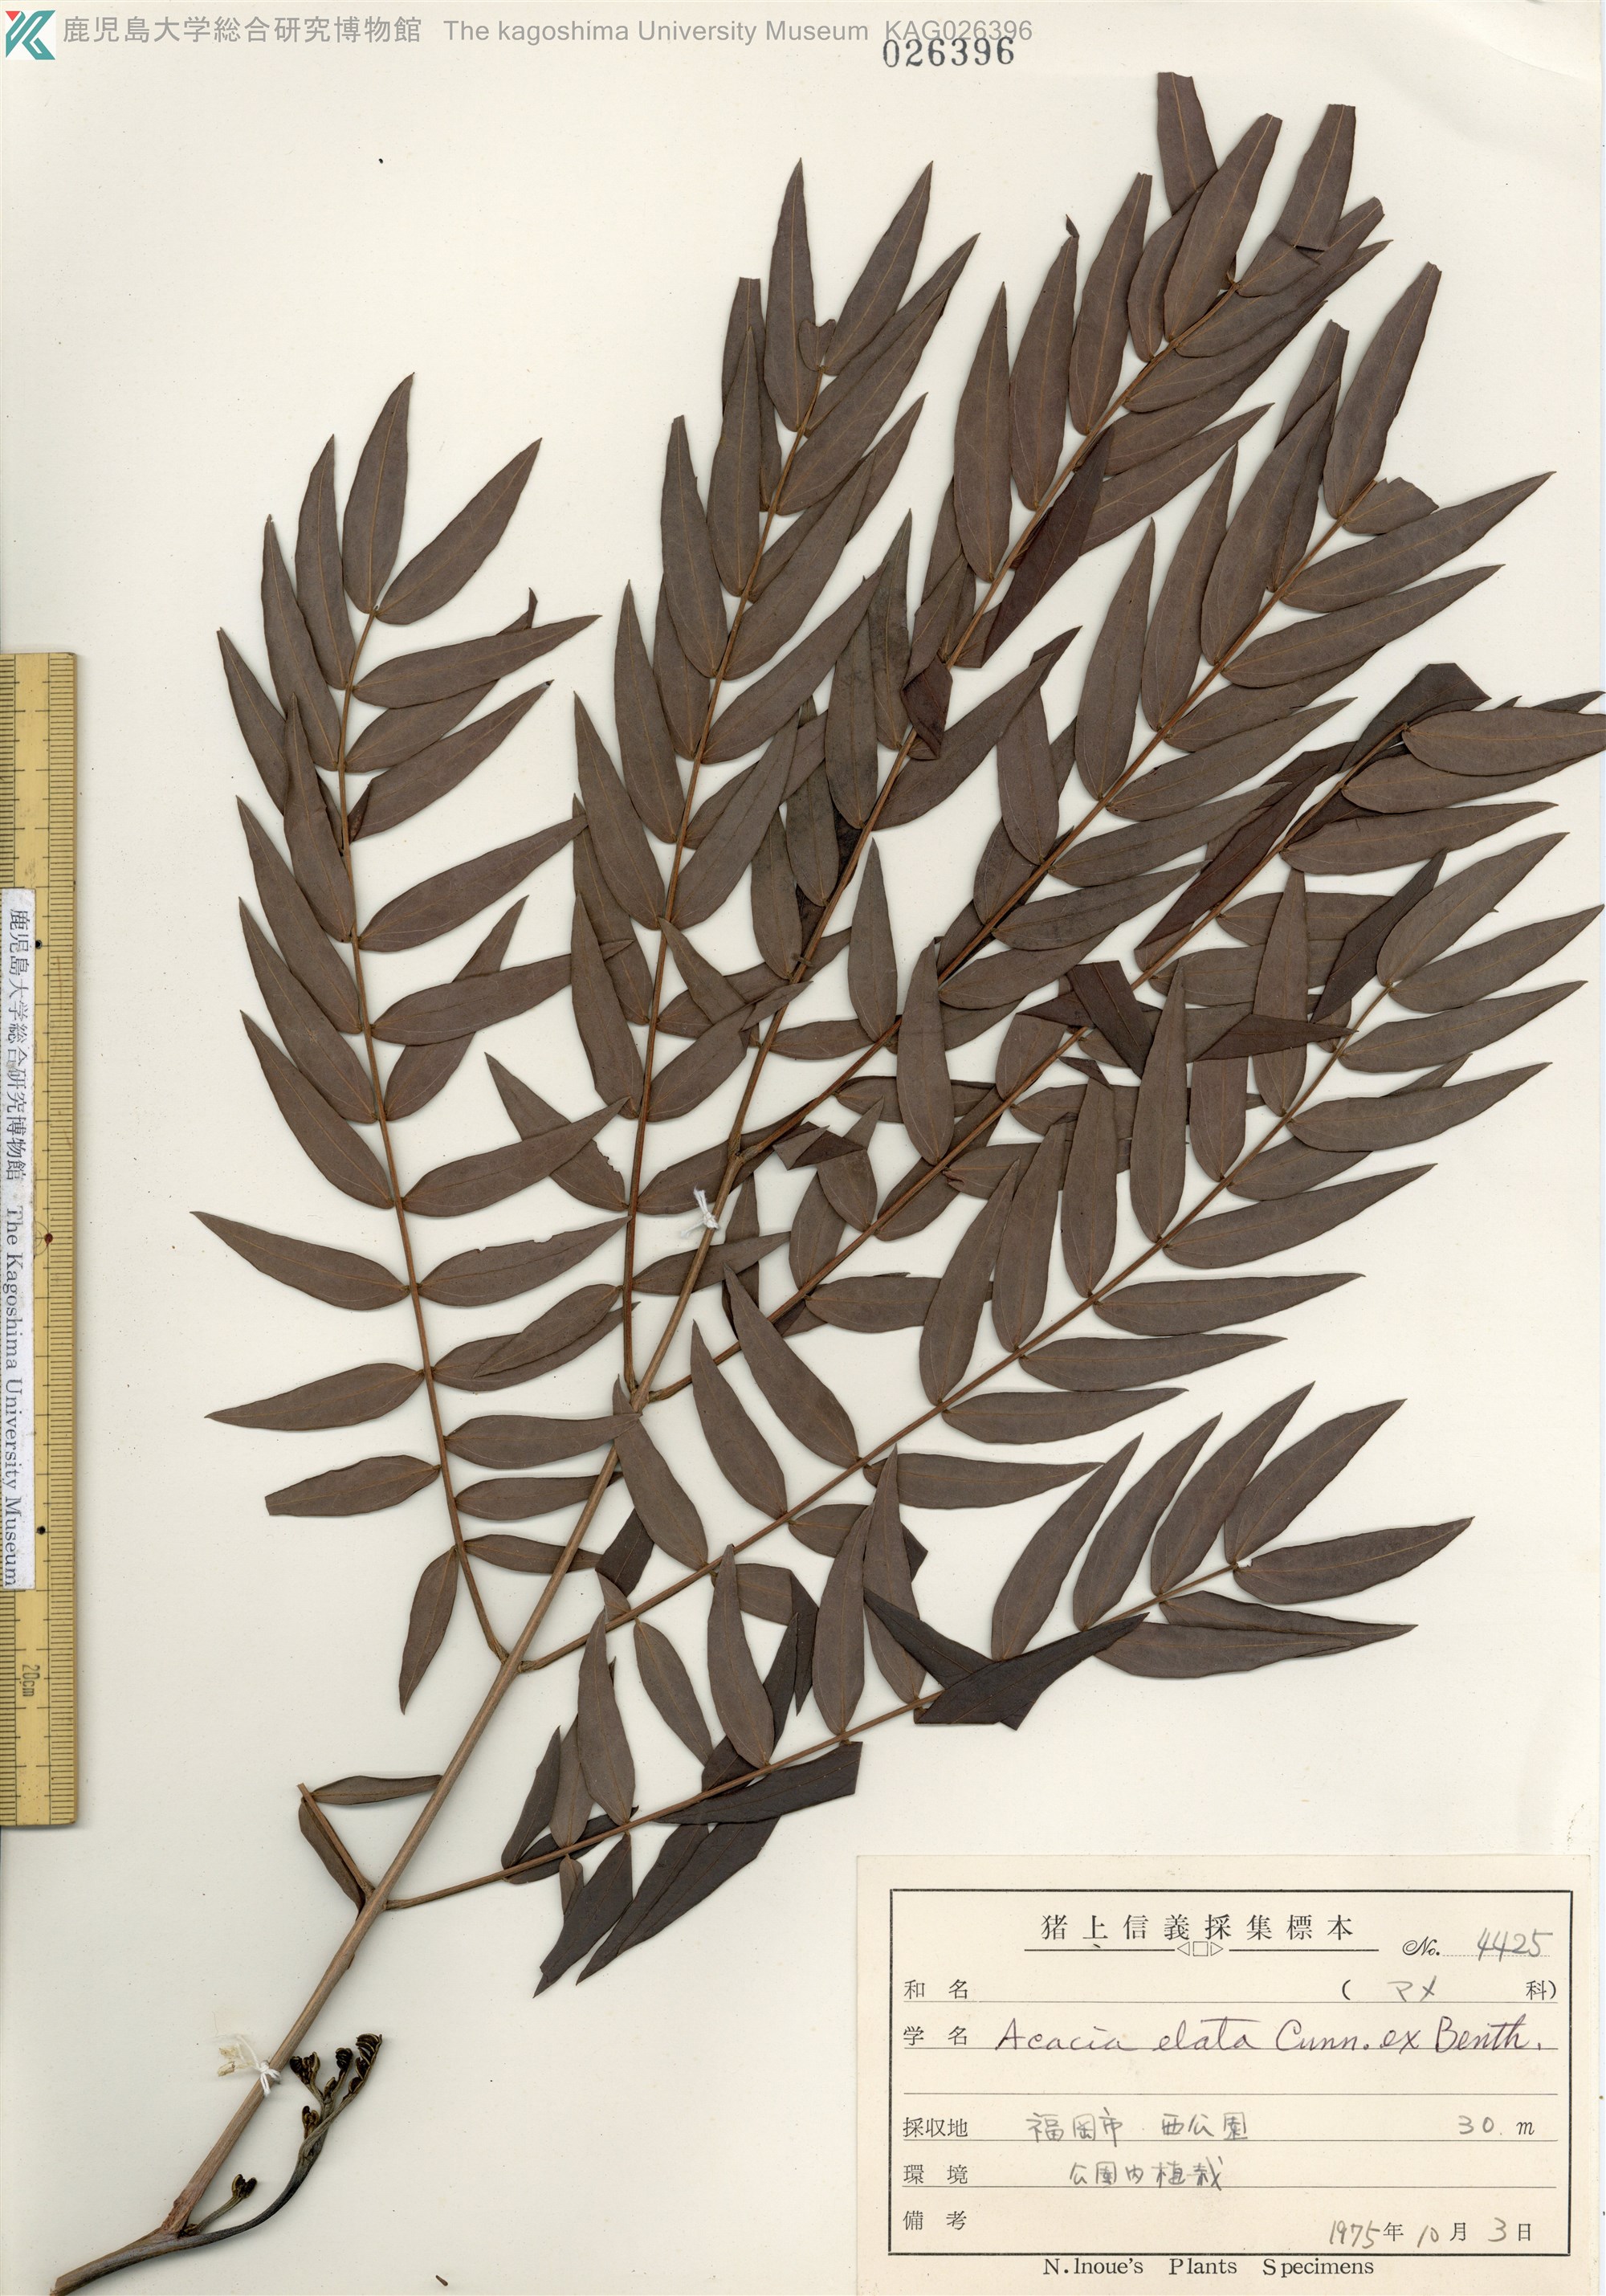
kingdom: Plantae
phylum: Tracheophyta
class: Magnoliopsida
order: Fabales
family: Fabaceae
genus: Acacia
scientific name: Acacia elata
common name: Cedar wattle
